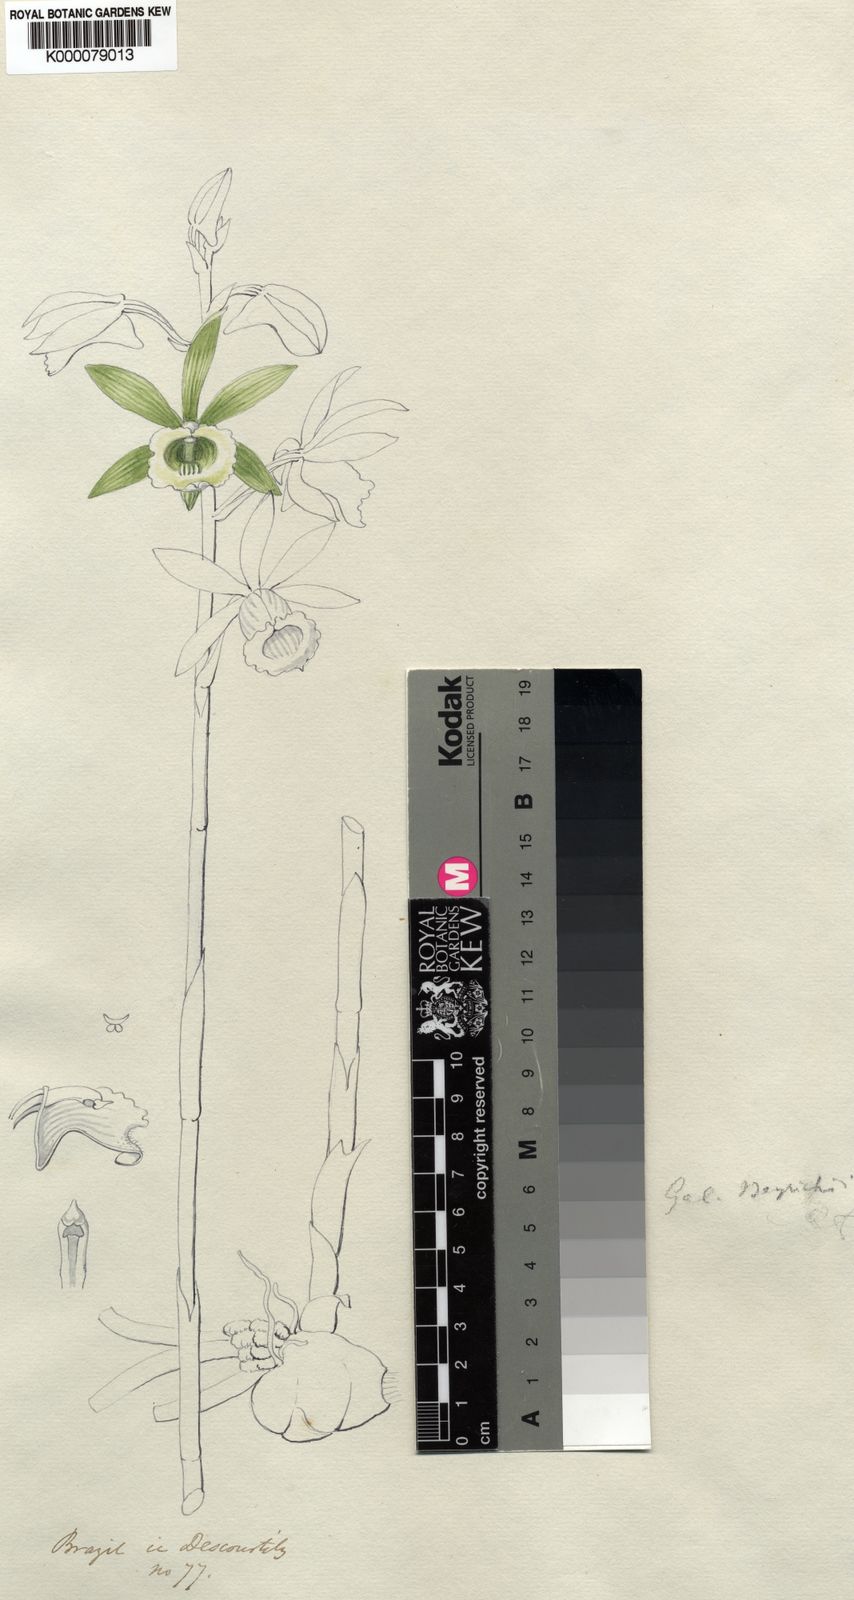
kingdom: Plantae
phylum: Tracheophyta
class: Liliopsida
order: Asparagales
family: Orchidaceae
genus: Galeandra
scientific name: Galeandra beyrichii
